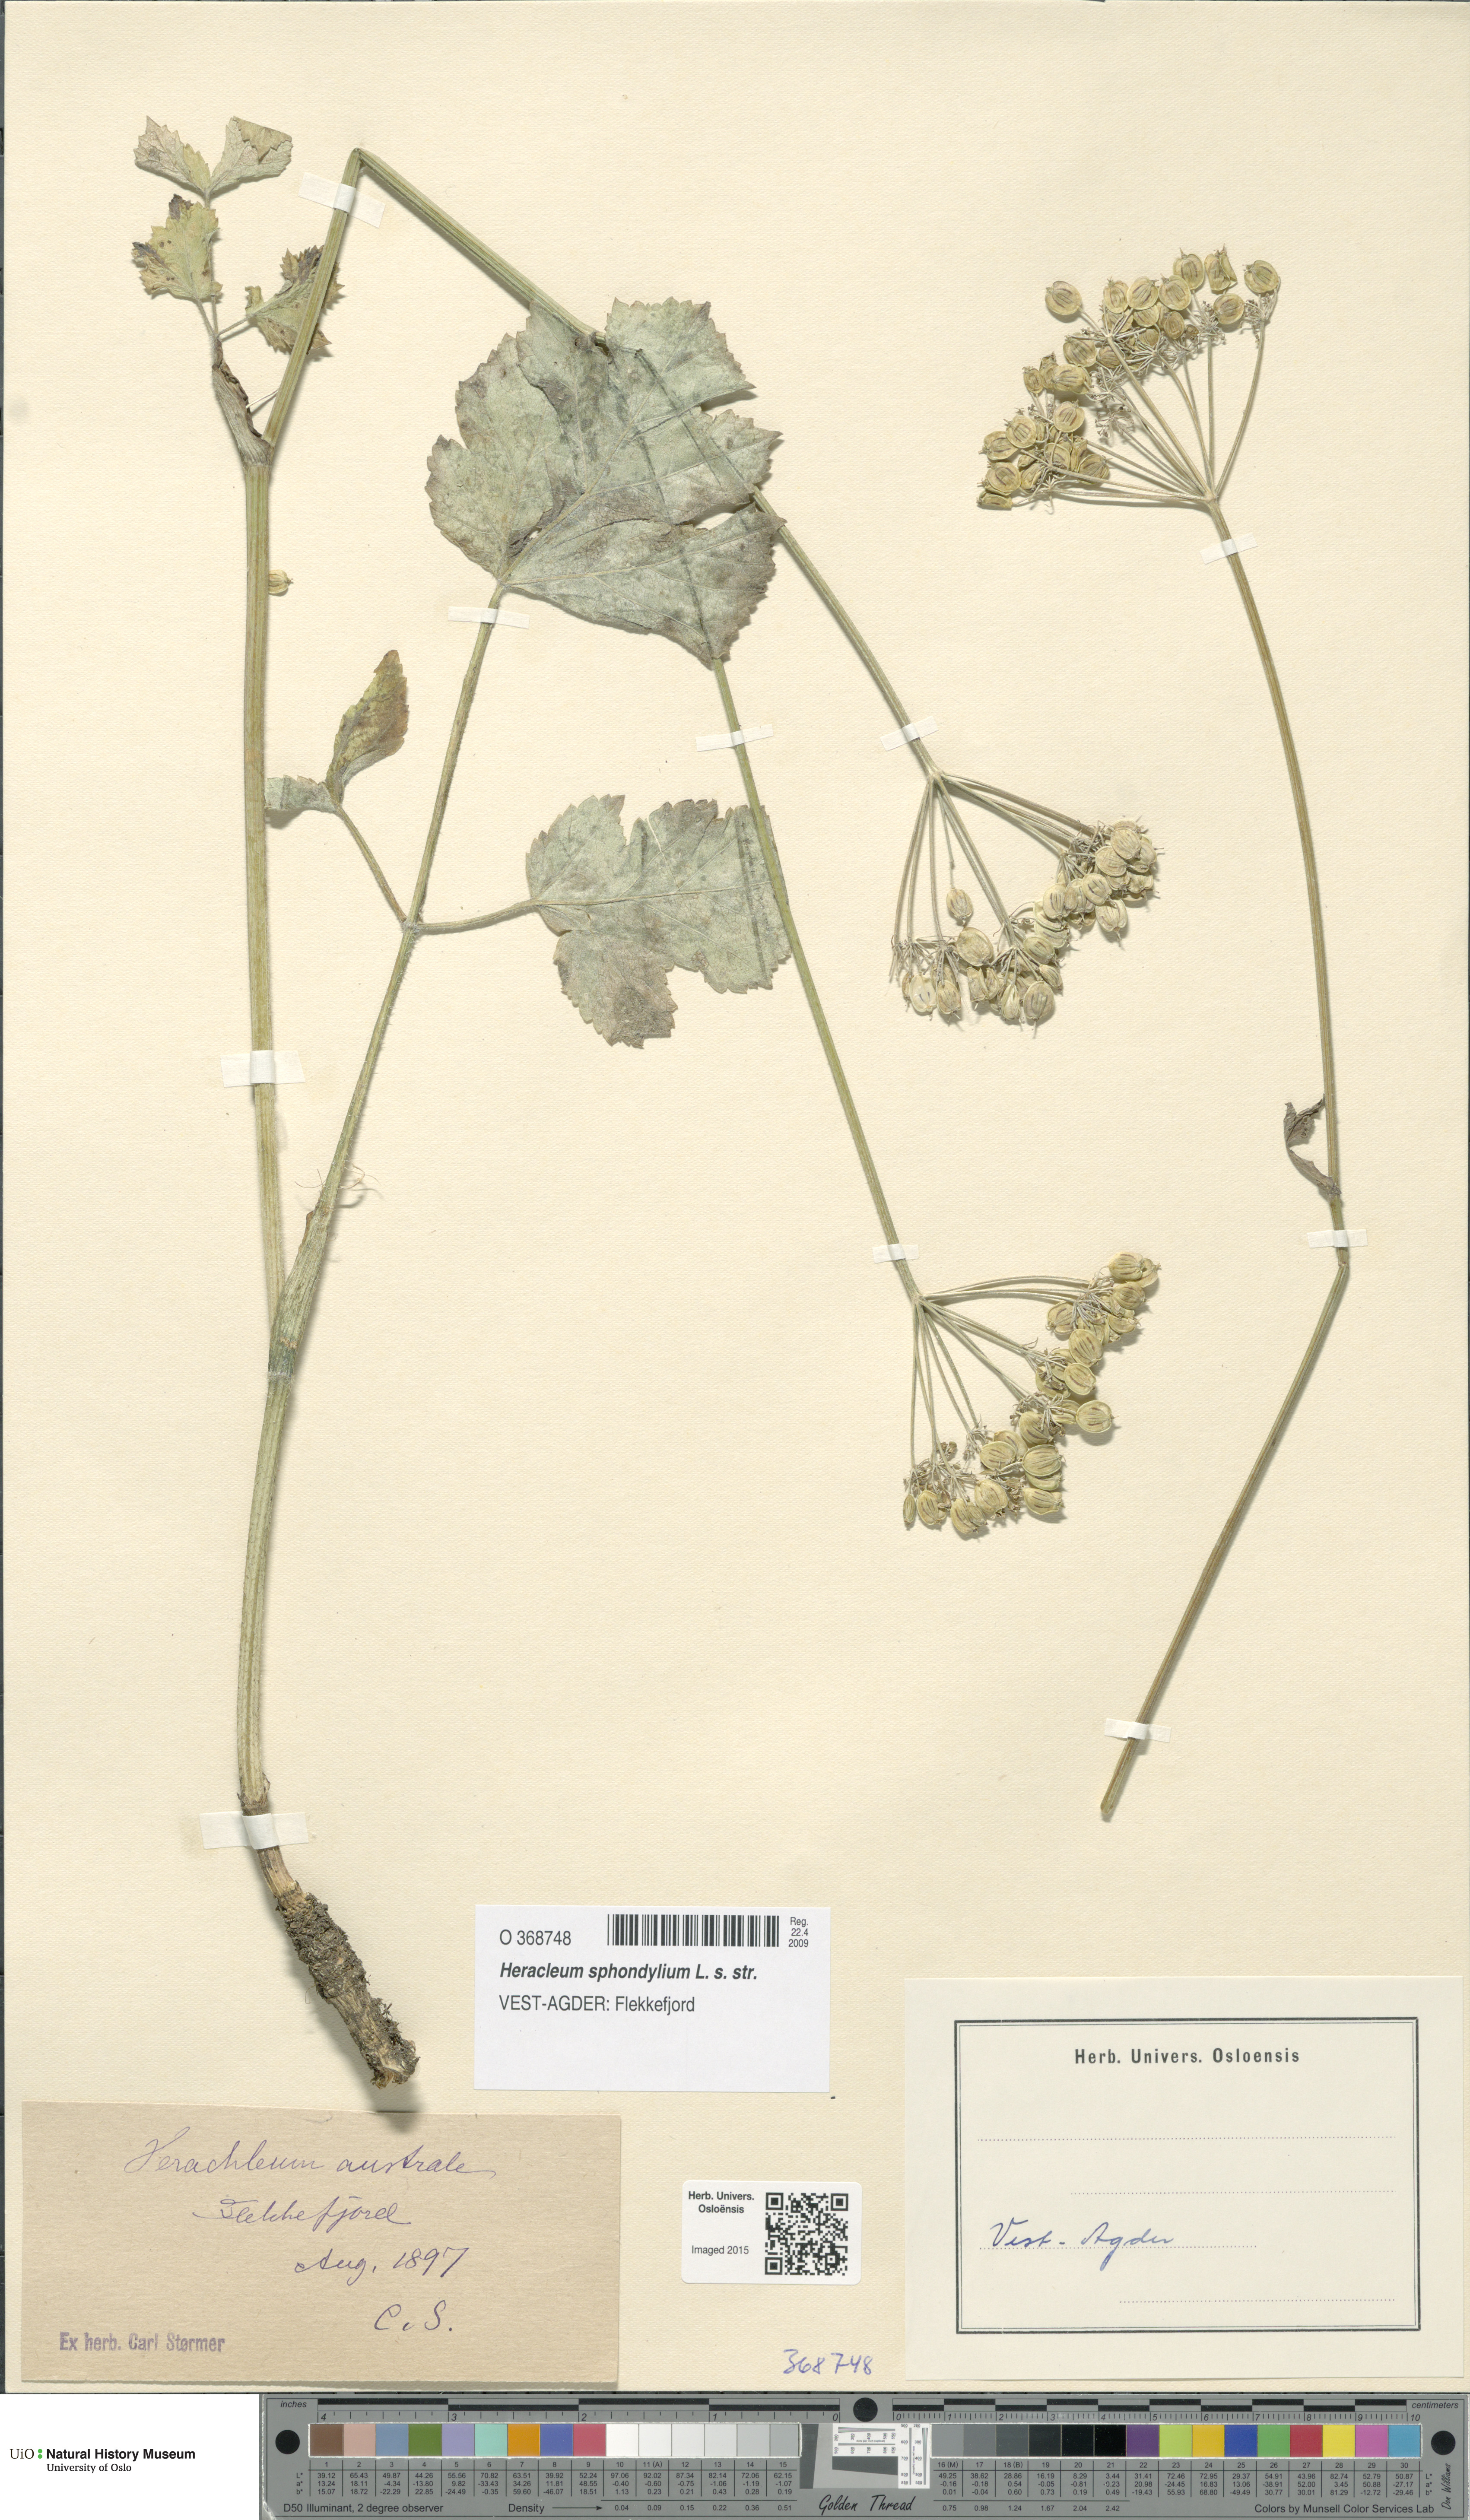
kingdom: Plantae
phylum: Tracheophyta
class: Magnoliopsida
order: Apiales
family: Apiaceae
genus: Heracleum
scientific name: Heracleum sphondylium
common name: Hogweed
